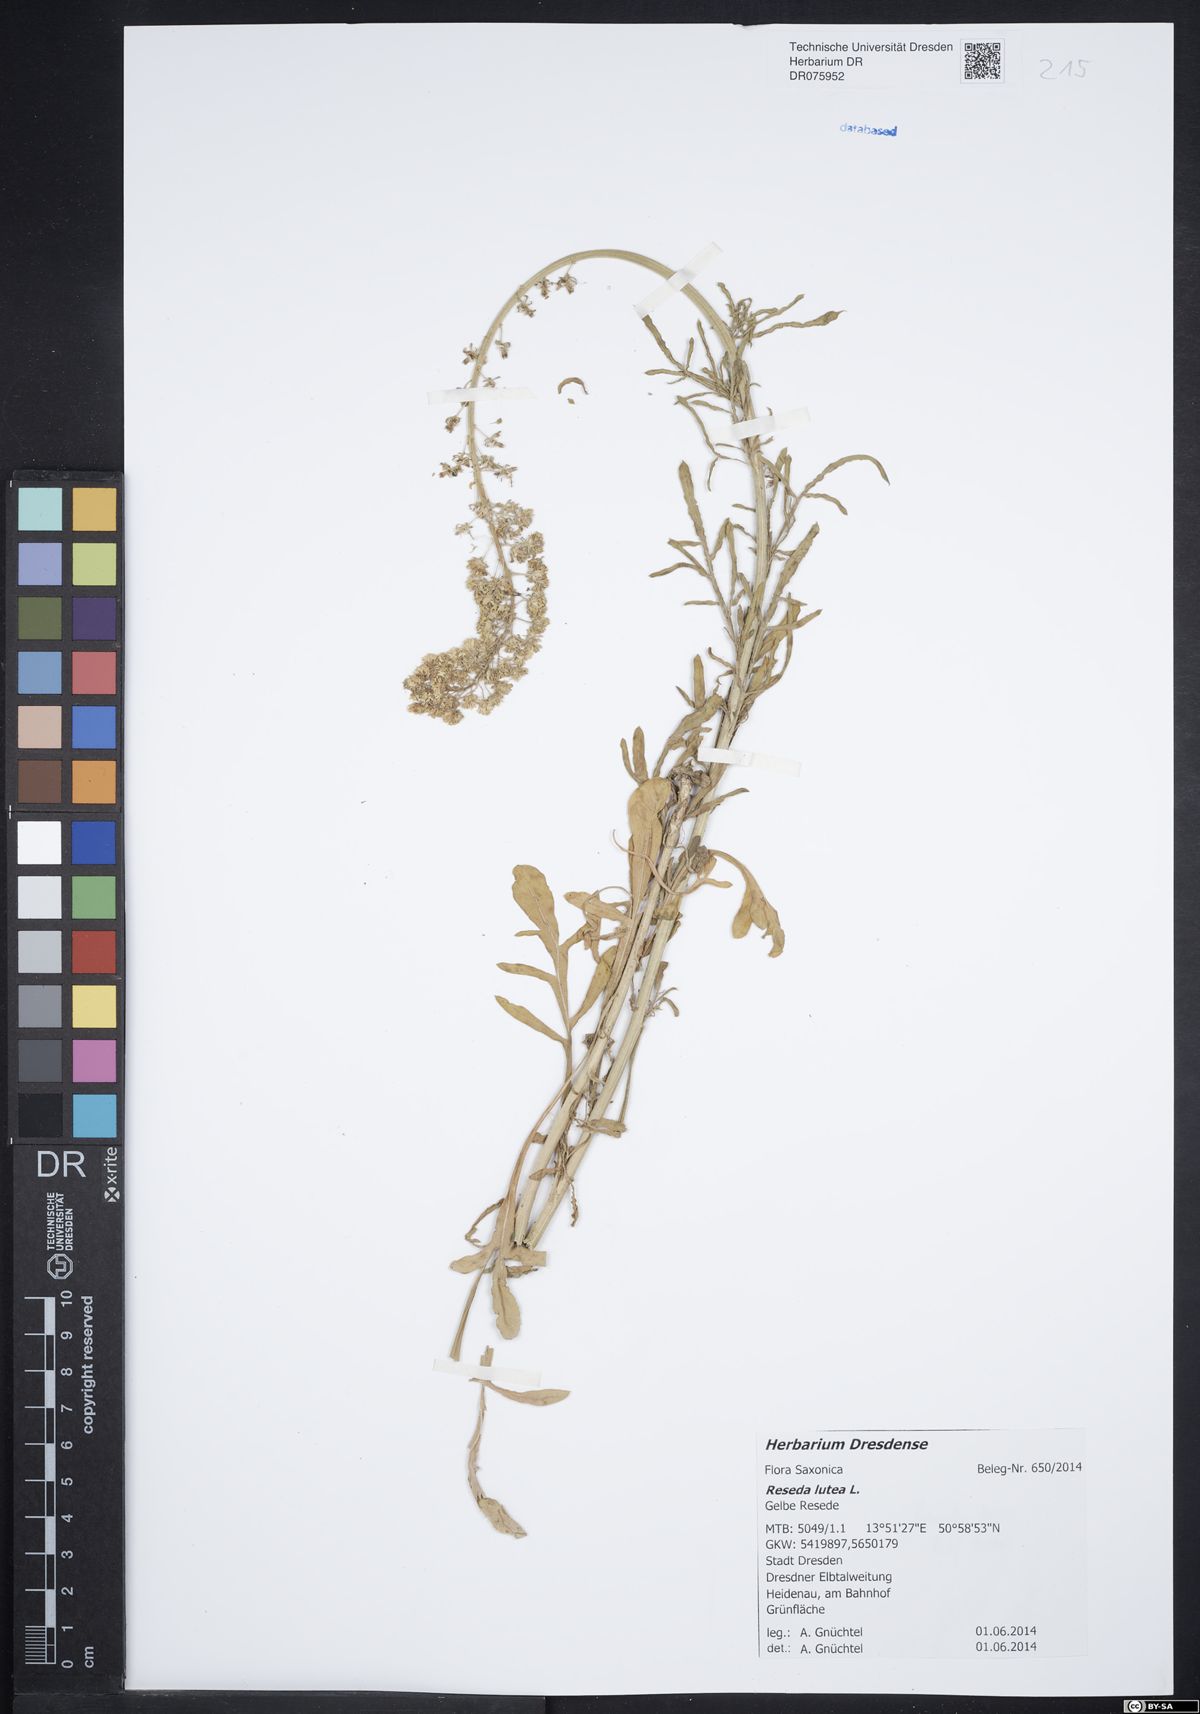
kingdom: Plantae
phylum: Tracheophyta
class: Magnoliopsida
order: Brassicales
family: Resedaceae
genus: Reseda
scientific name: Reseda lutea
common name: Wild mignonette
